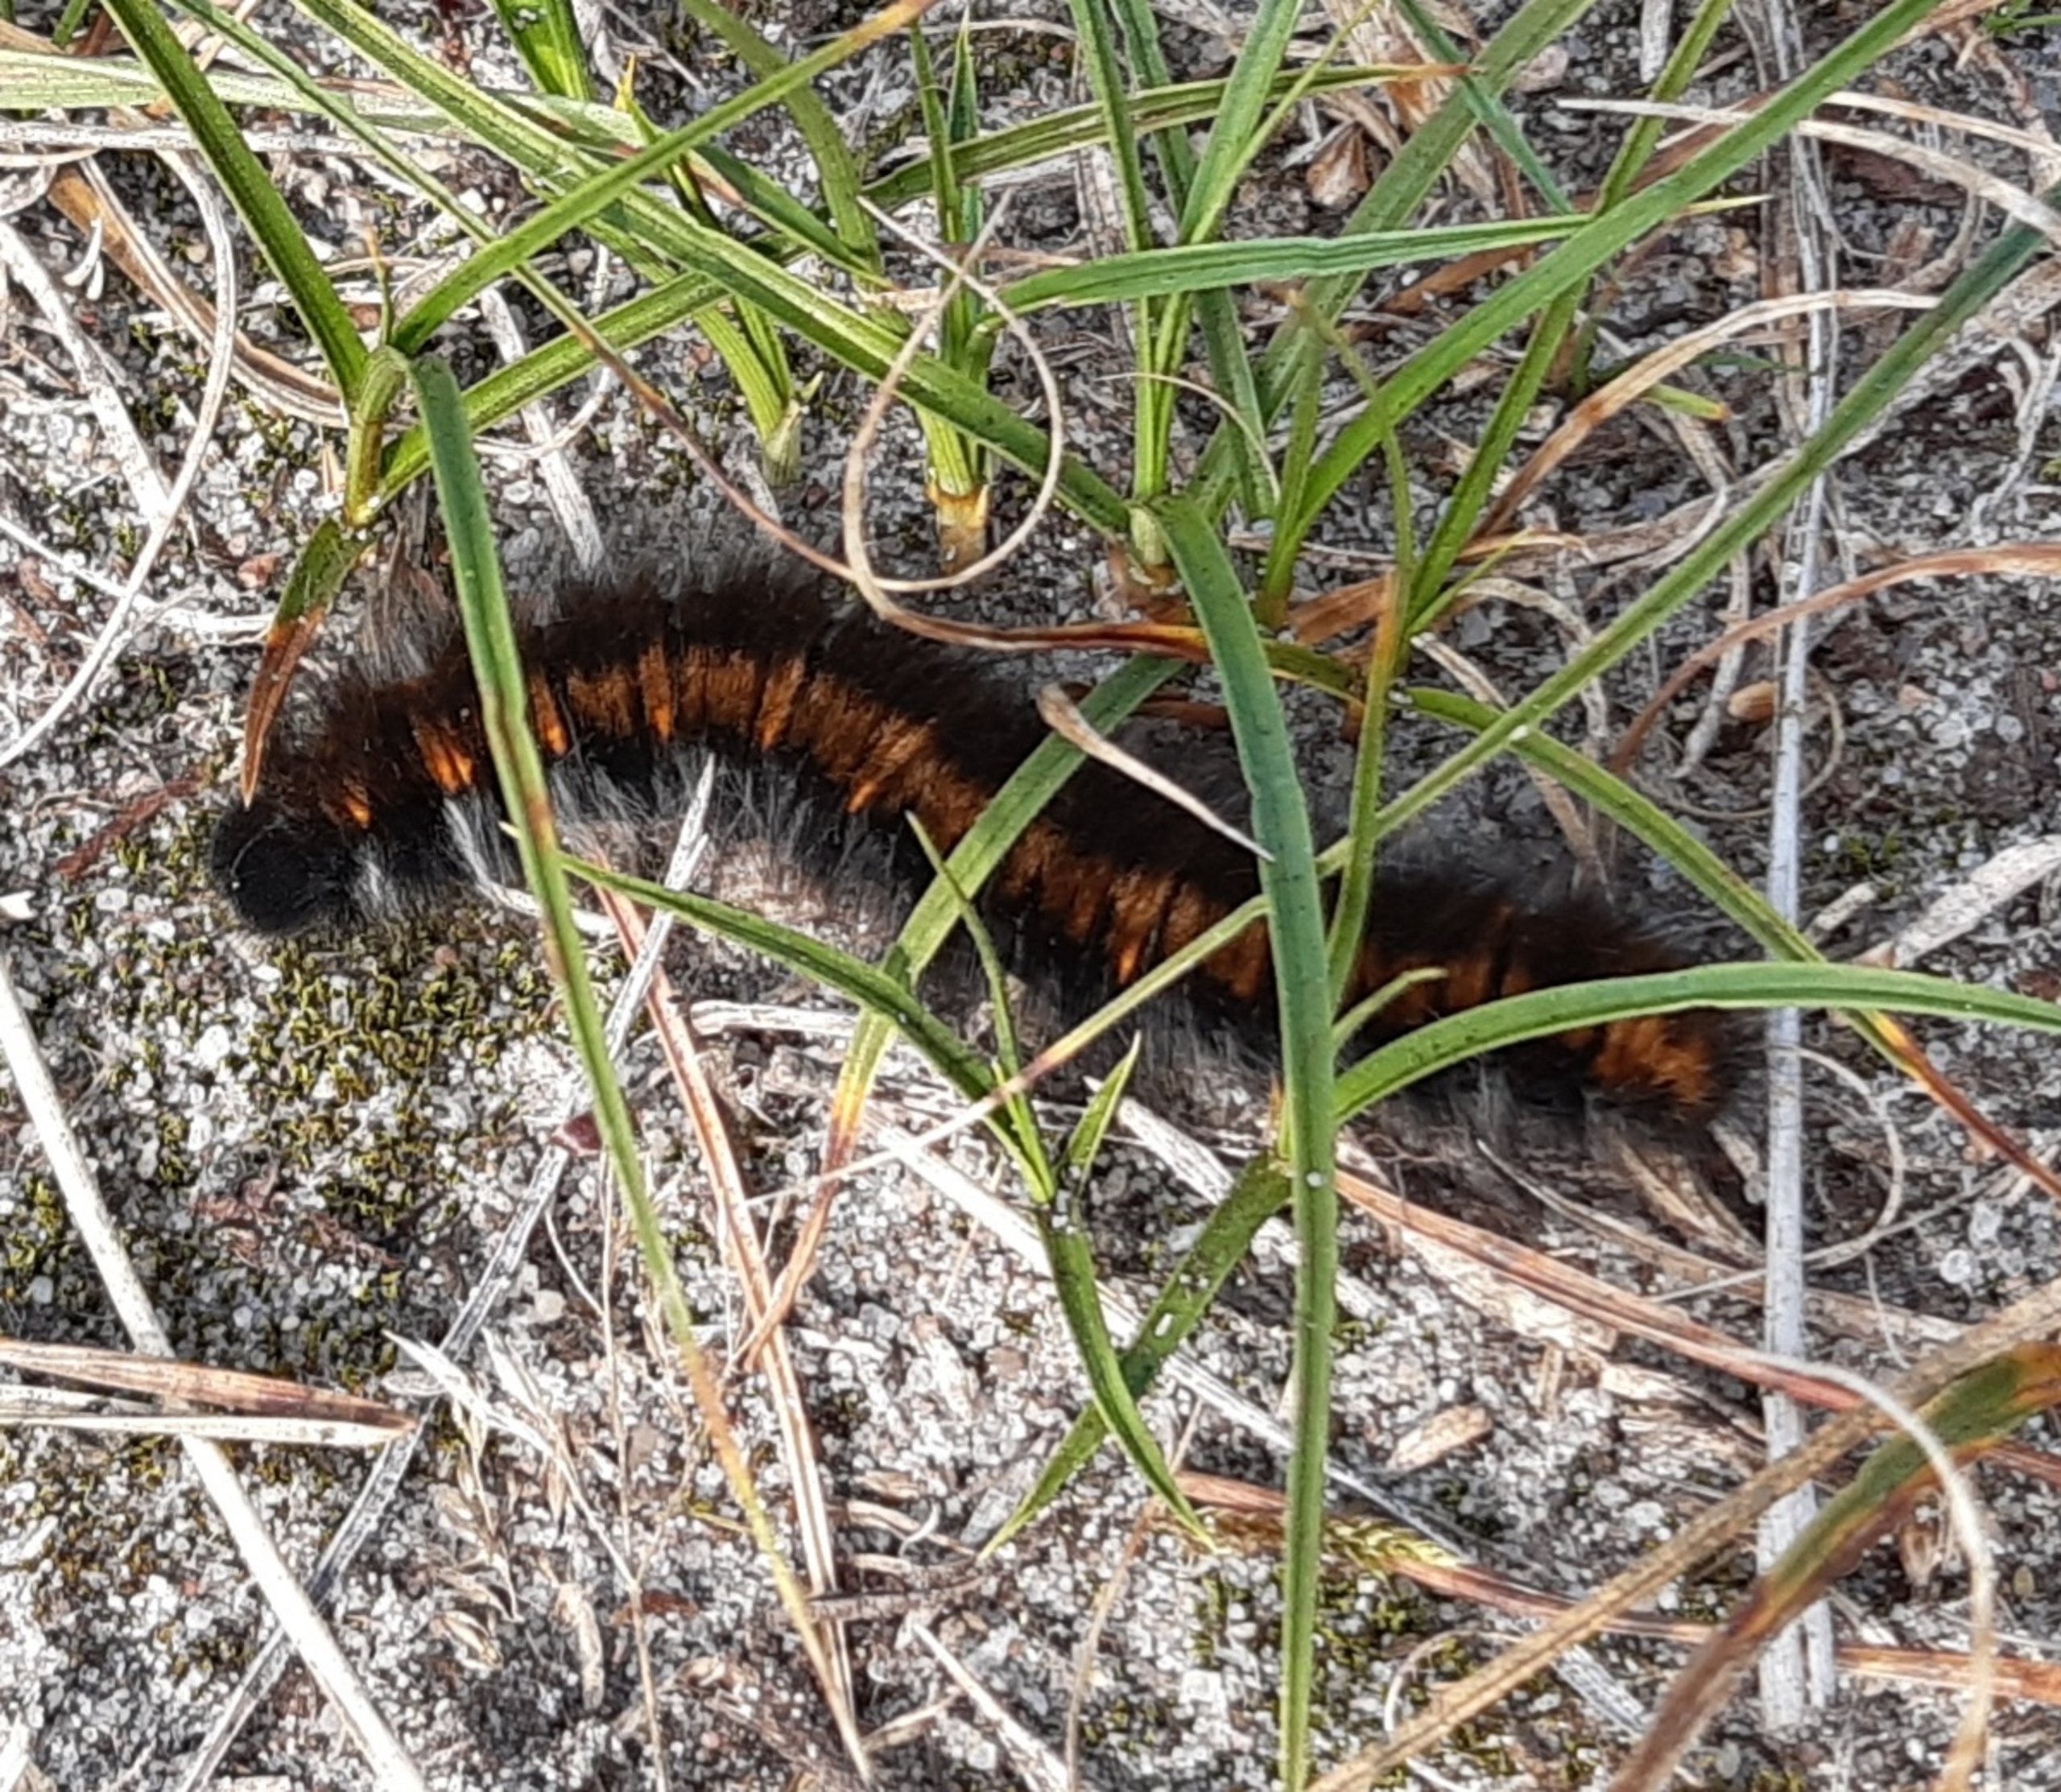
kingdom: Animalia
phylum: Arthropoda
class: Insecta
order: Lepidoptera
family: Lasiocampidae
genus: Macrothylacia
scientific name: Macrothylacia rubi
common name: Brombærspinder
